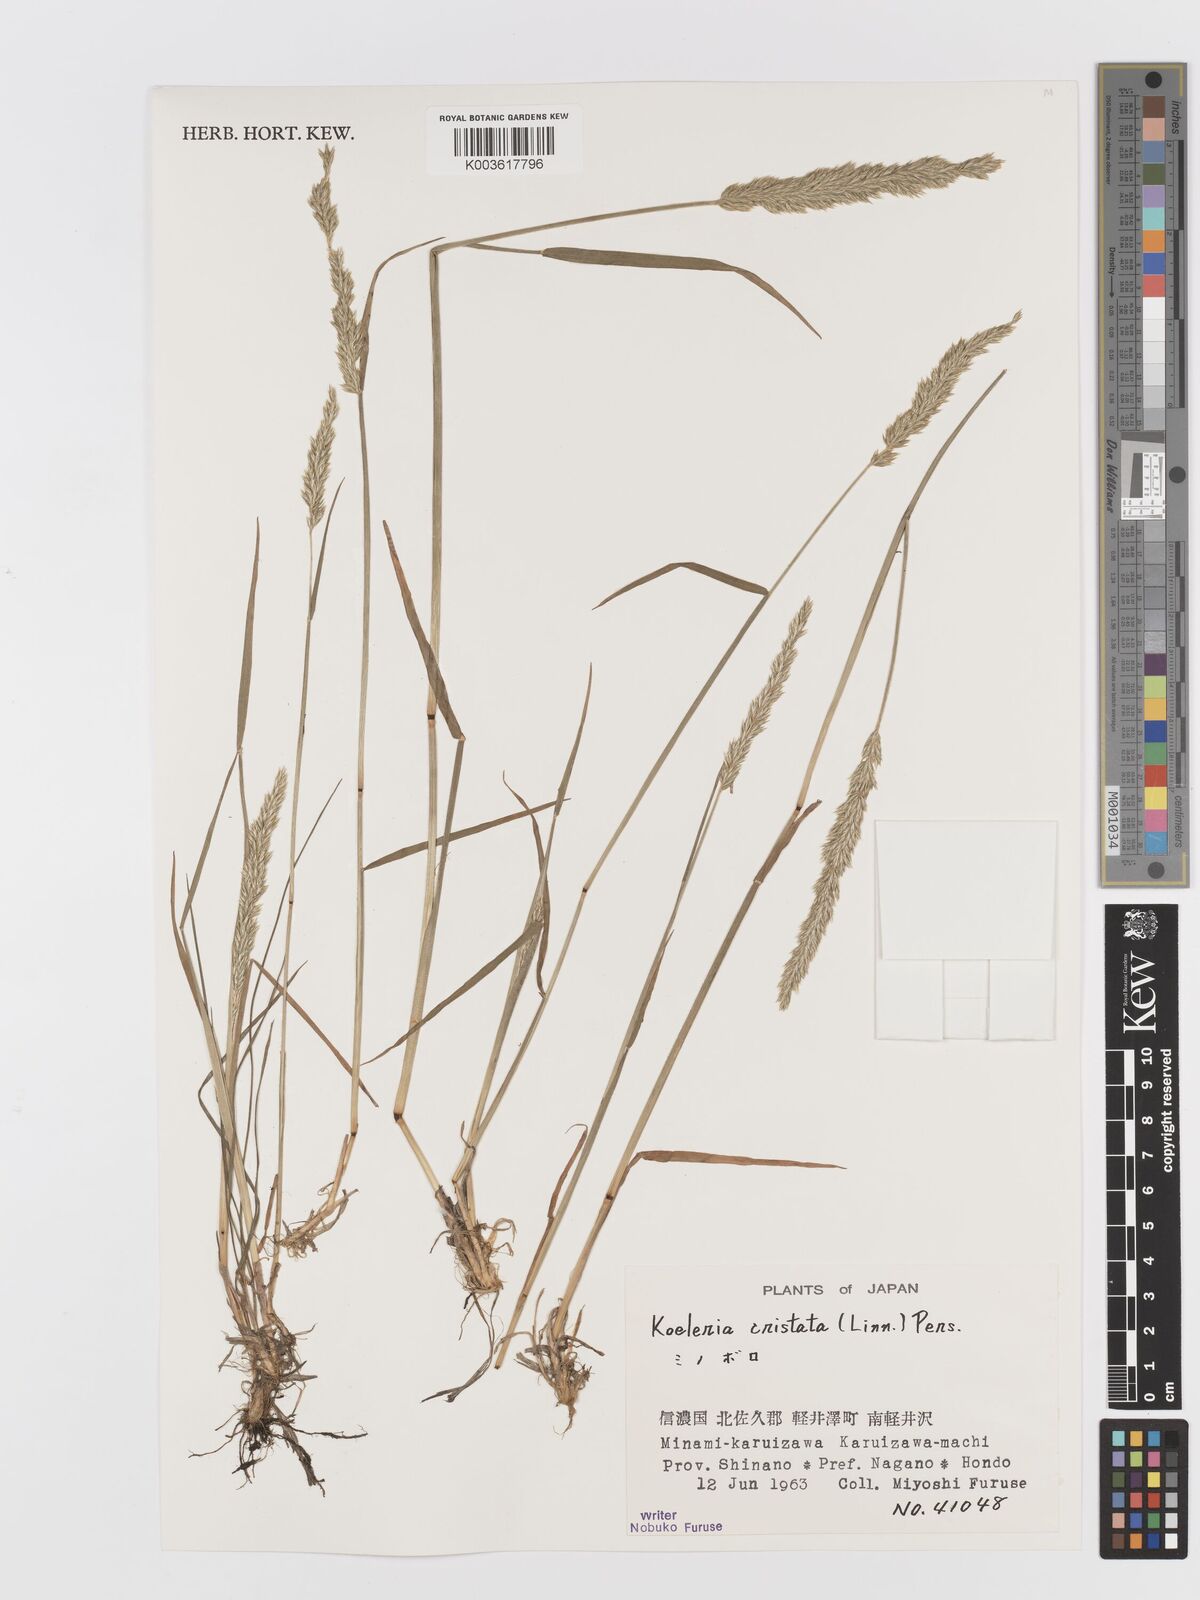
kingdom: Plantae
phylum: Tracheophyta
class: Liliopsida
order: Poales
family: Poaceae
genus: Koeleria
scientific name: Koeleria macrantha
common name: Crested hair-grass
